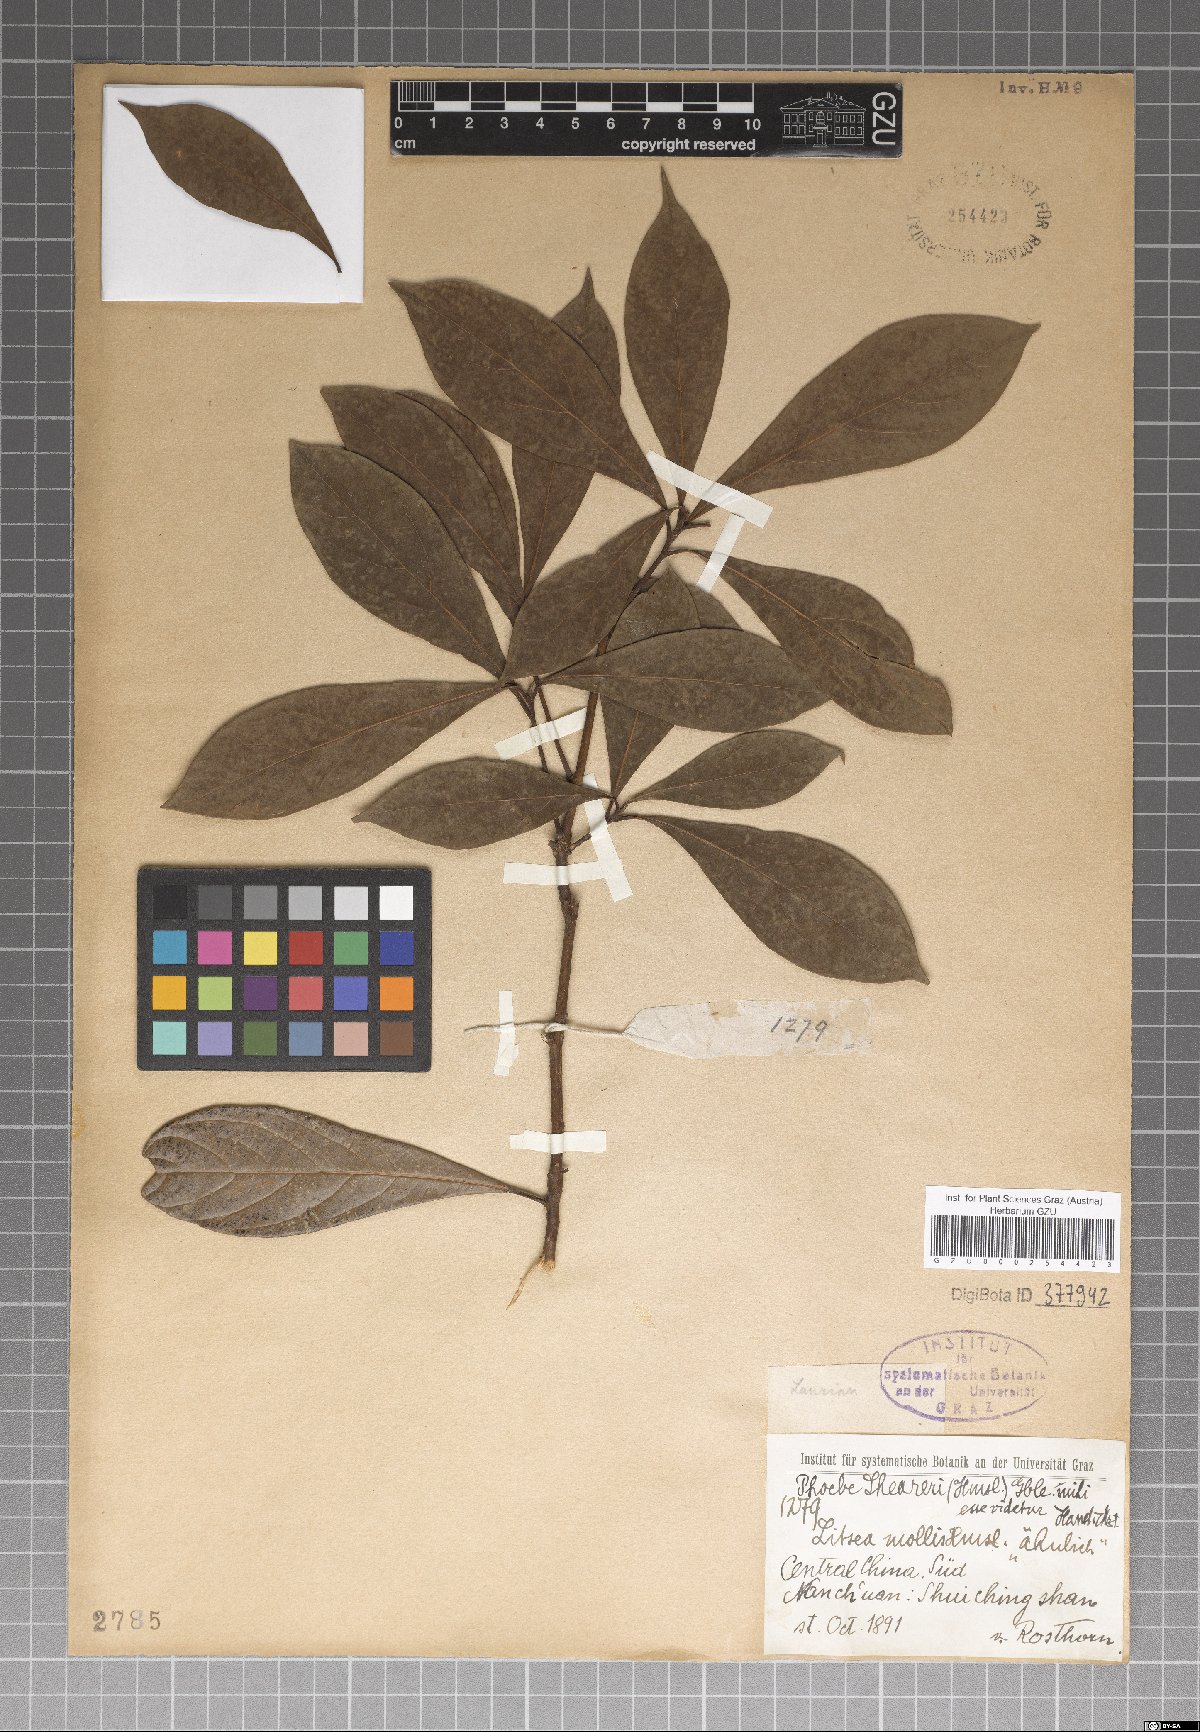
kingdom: Plantae
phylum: Tracheophyta
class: Magnoliopsida
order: Laurales
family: Lauraceae
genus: Phoebe
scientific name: Phoebe sheareri
